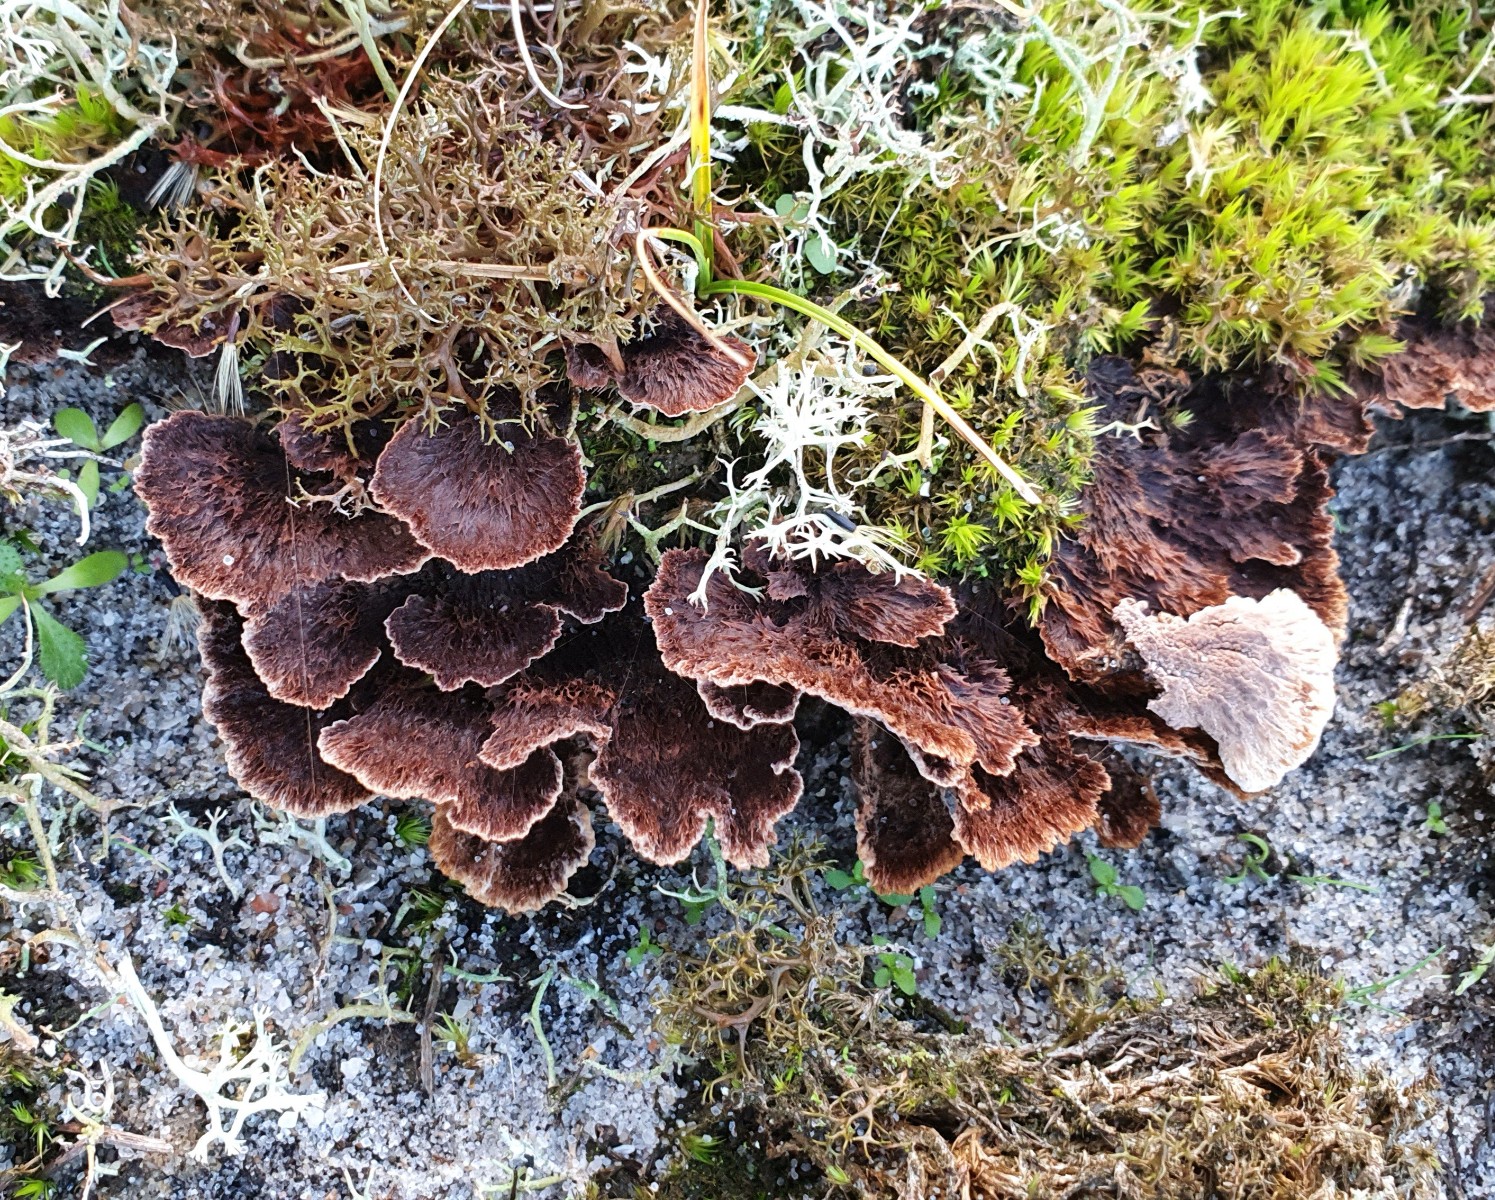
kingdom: Fungi
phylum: Basidiomycota
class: Agaricomycetes
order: Thelephorales
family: Thelephoraceae
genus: Thelephora
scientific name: Thelephora terrestris
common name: fliget frynsesvamp
